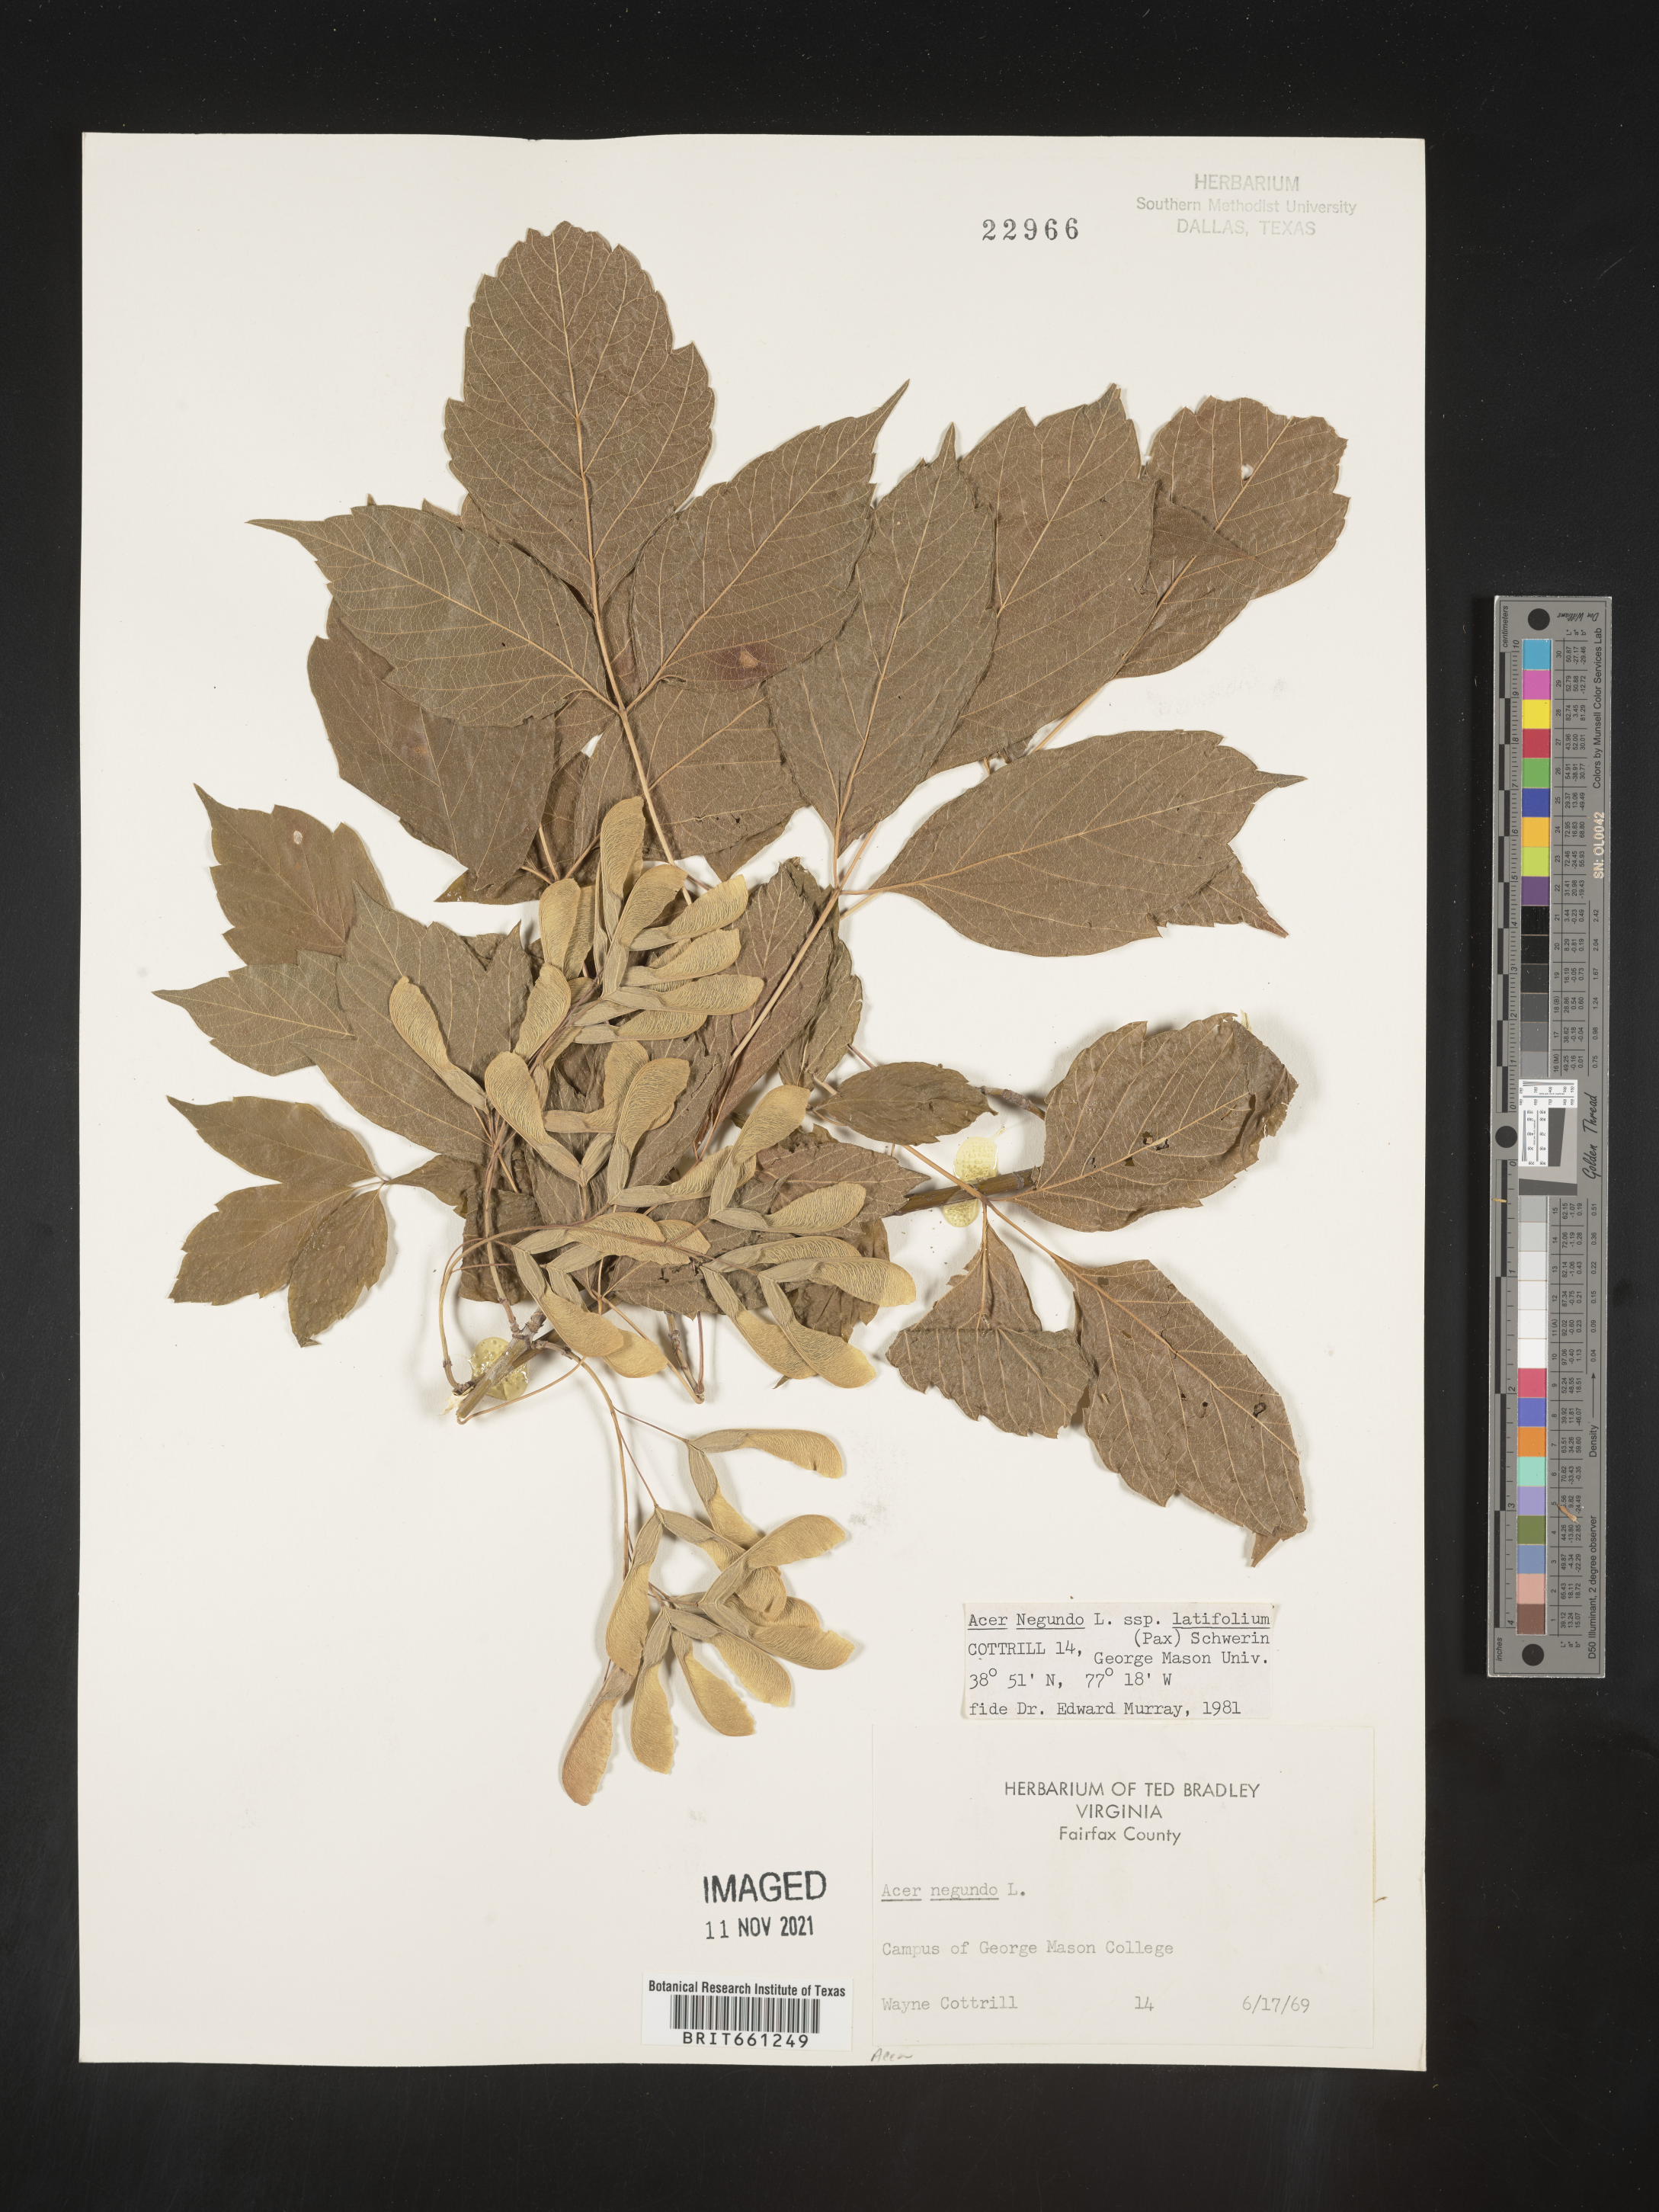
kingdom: Plantae
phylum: Tracheophyta
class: Magnoliopsida
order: Sapindales
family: Sapindaceae
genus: Acer
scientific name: Acer negundo
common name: Ashleaf maple
